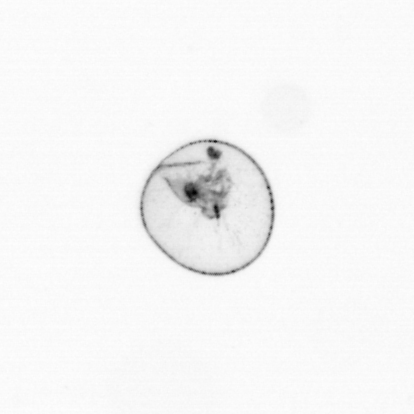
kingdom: Chromista
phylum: Myzozoa
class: Dinophyceae
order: Noctilucales
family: Noctilucaceae
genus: Noctiluca
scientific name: Noctiluca scintillans
